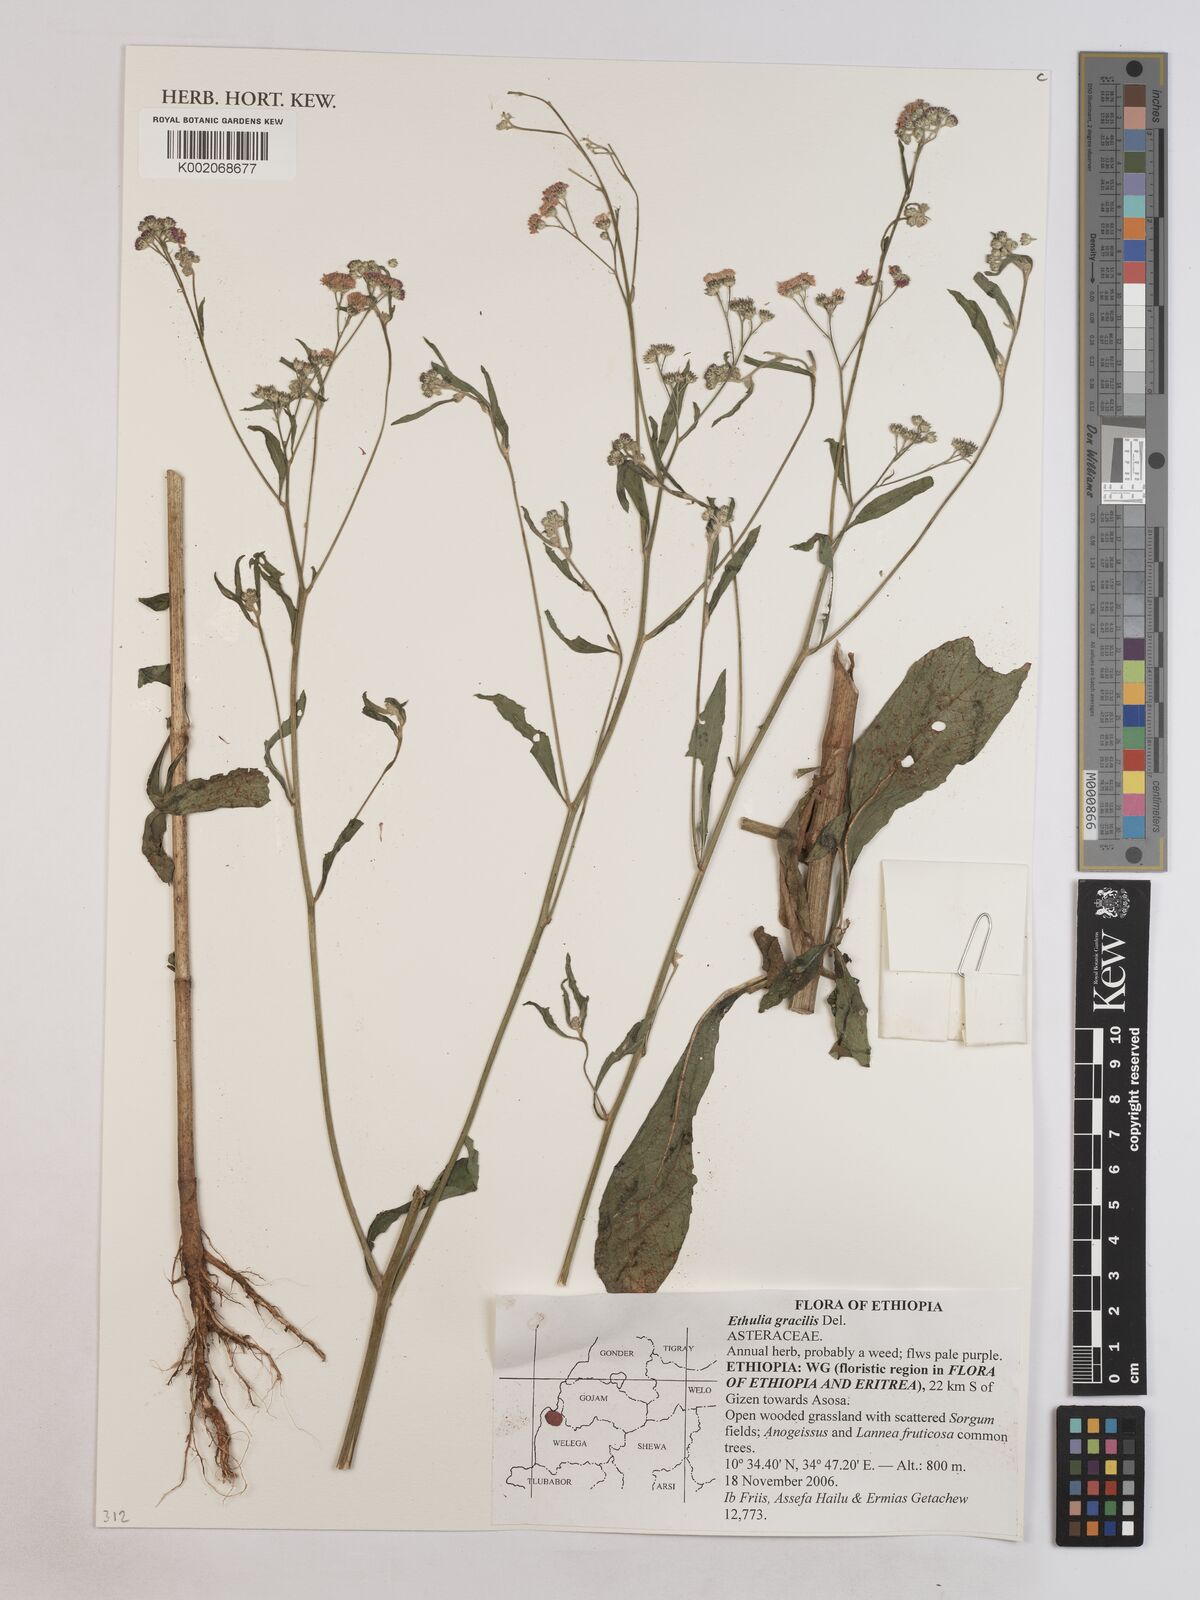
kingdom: Plantae
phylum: Tracheophyta
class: Magnoliopsida
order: Asterales
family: Asteraceae
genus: Ethulia
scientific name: Ethulia gracilis
